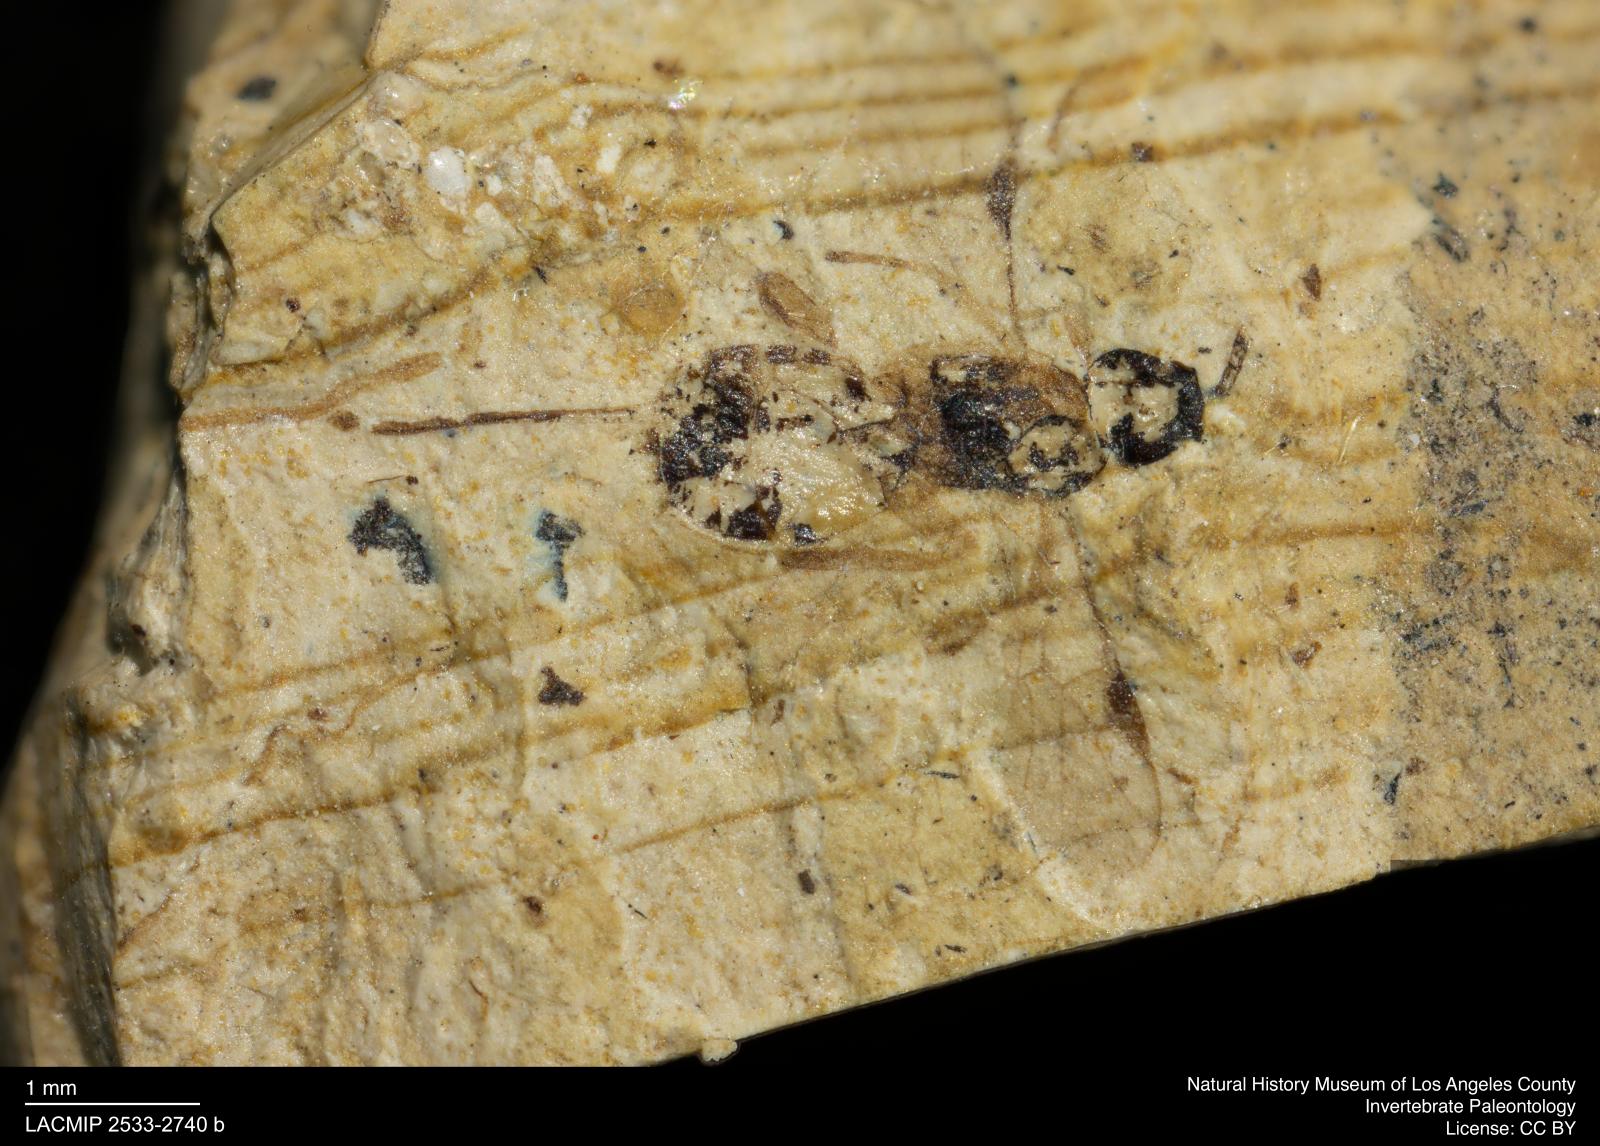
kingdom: Animalia
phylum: Arthropoda
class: Insecta
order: Hymenoptera
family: Braconidae
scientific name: Braconidae
